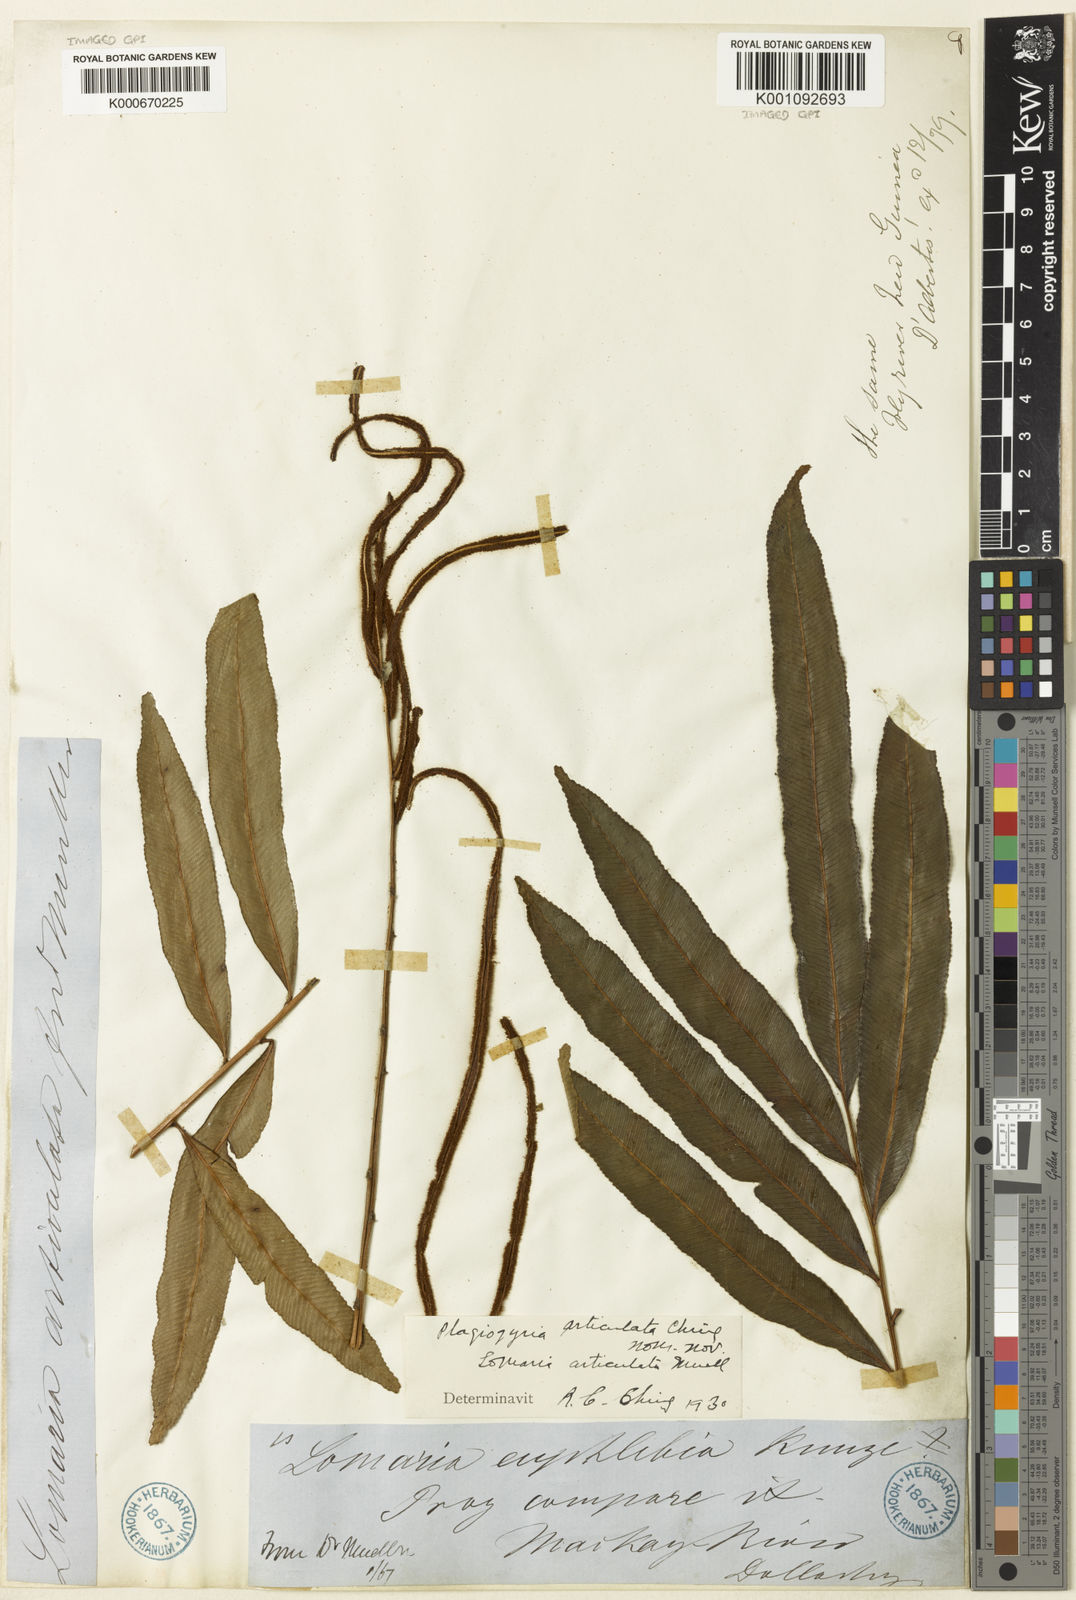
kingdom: Plantae
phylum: Tracheophyta
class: Polypodiopsida
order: Polypodiales
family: Blechnaceae
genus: Parablechnum
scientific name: Parablechnum articulatum
